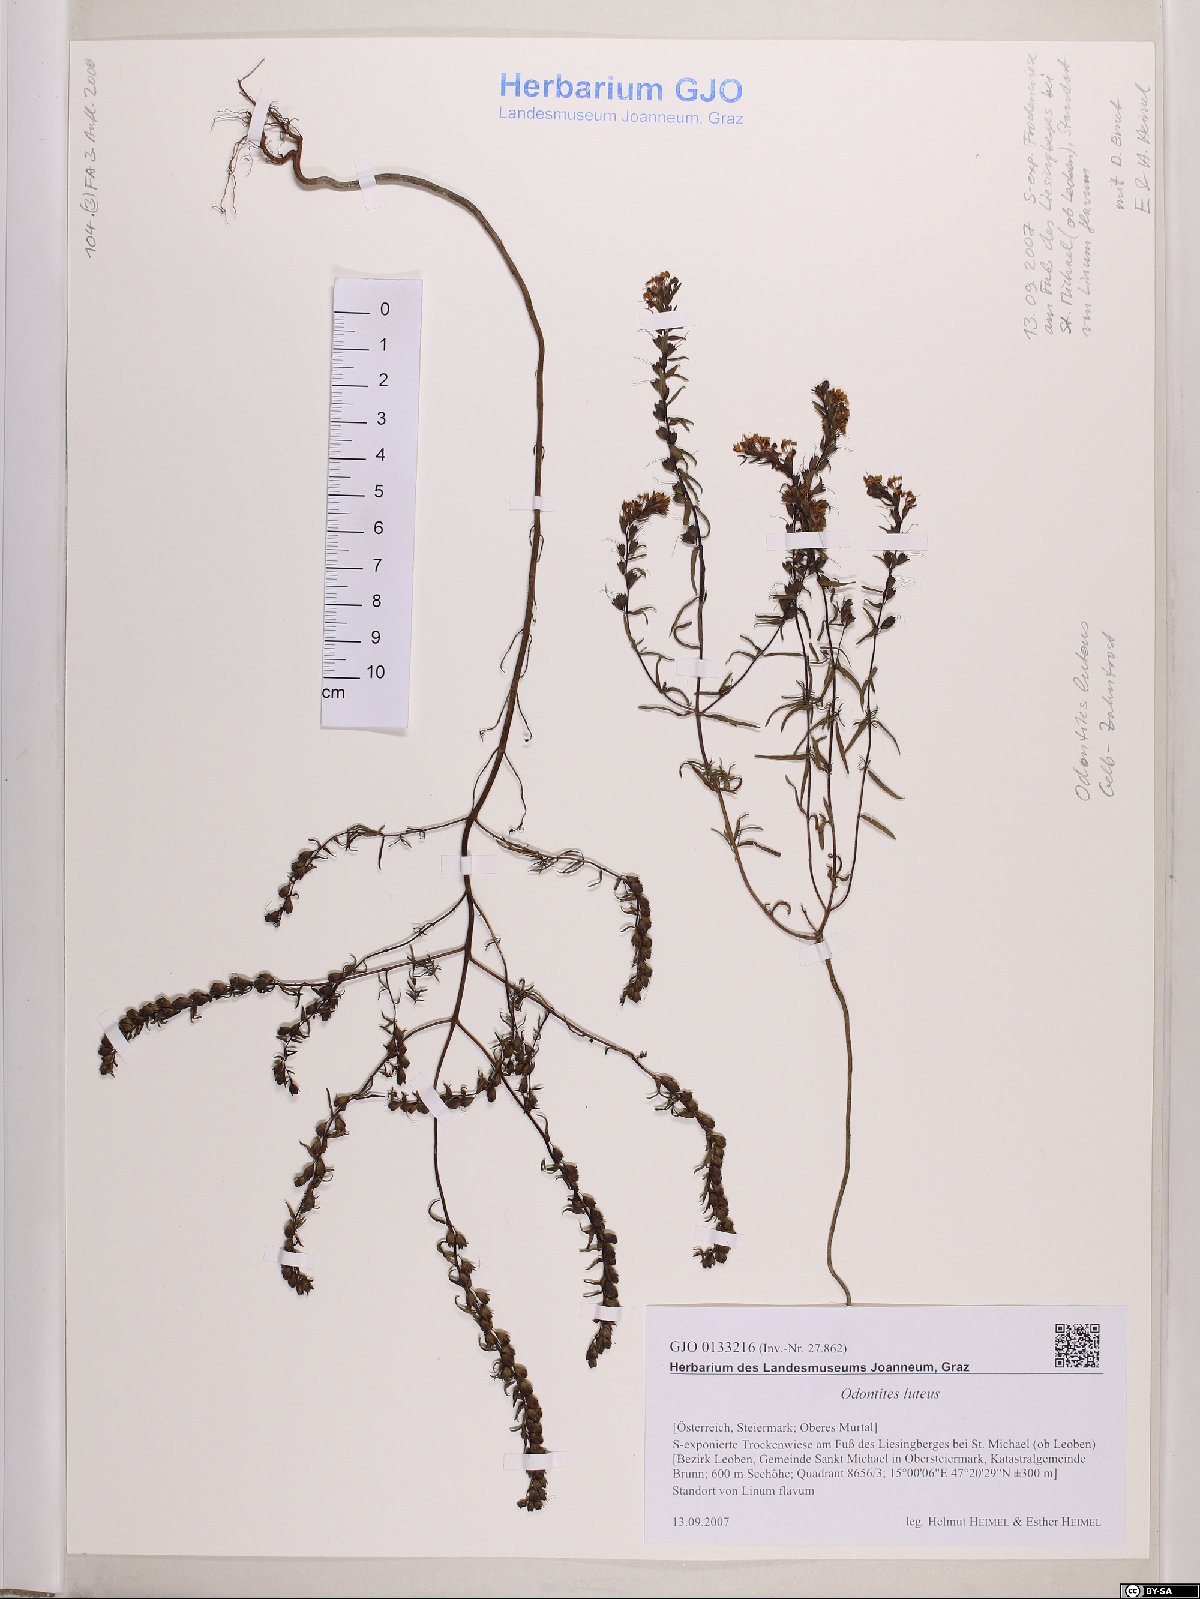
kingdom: Plantae
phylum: Tracheophyta
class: Magnoliopsida
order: Lamiales
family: Orobanchaceae
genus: Odontites
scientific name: Odontites luteus
